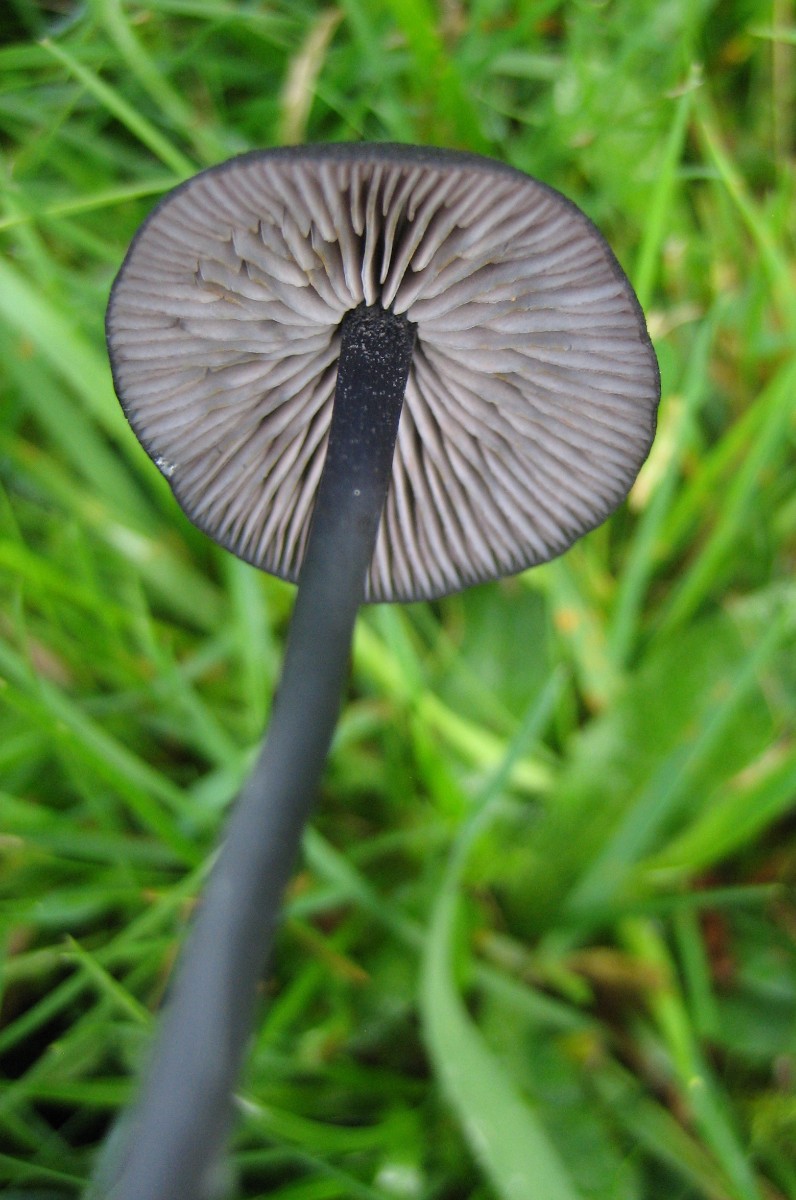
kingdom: Fungi
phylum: Basidiomycota
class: Agaricomycetes
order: Agaricales
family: Entolomataceae
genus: Entoloma
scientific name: Entoloma
